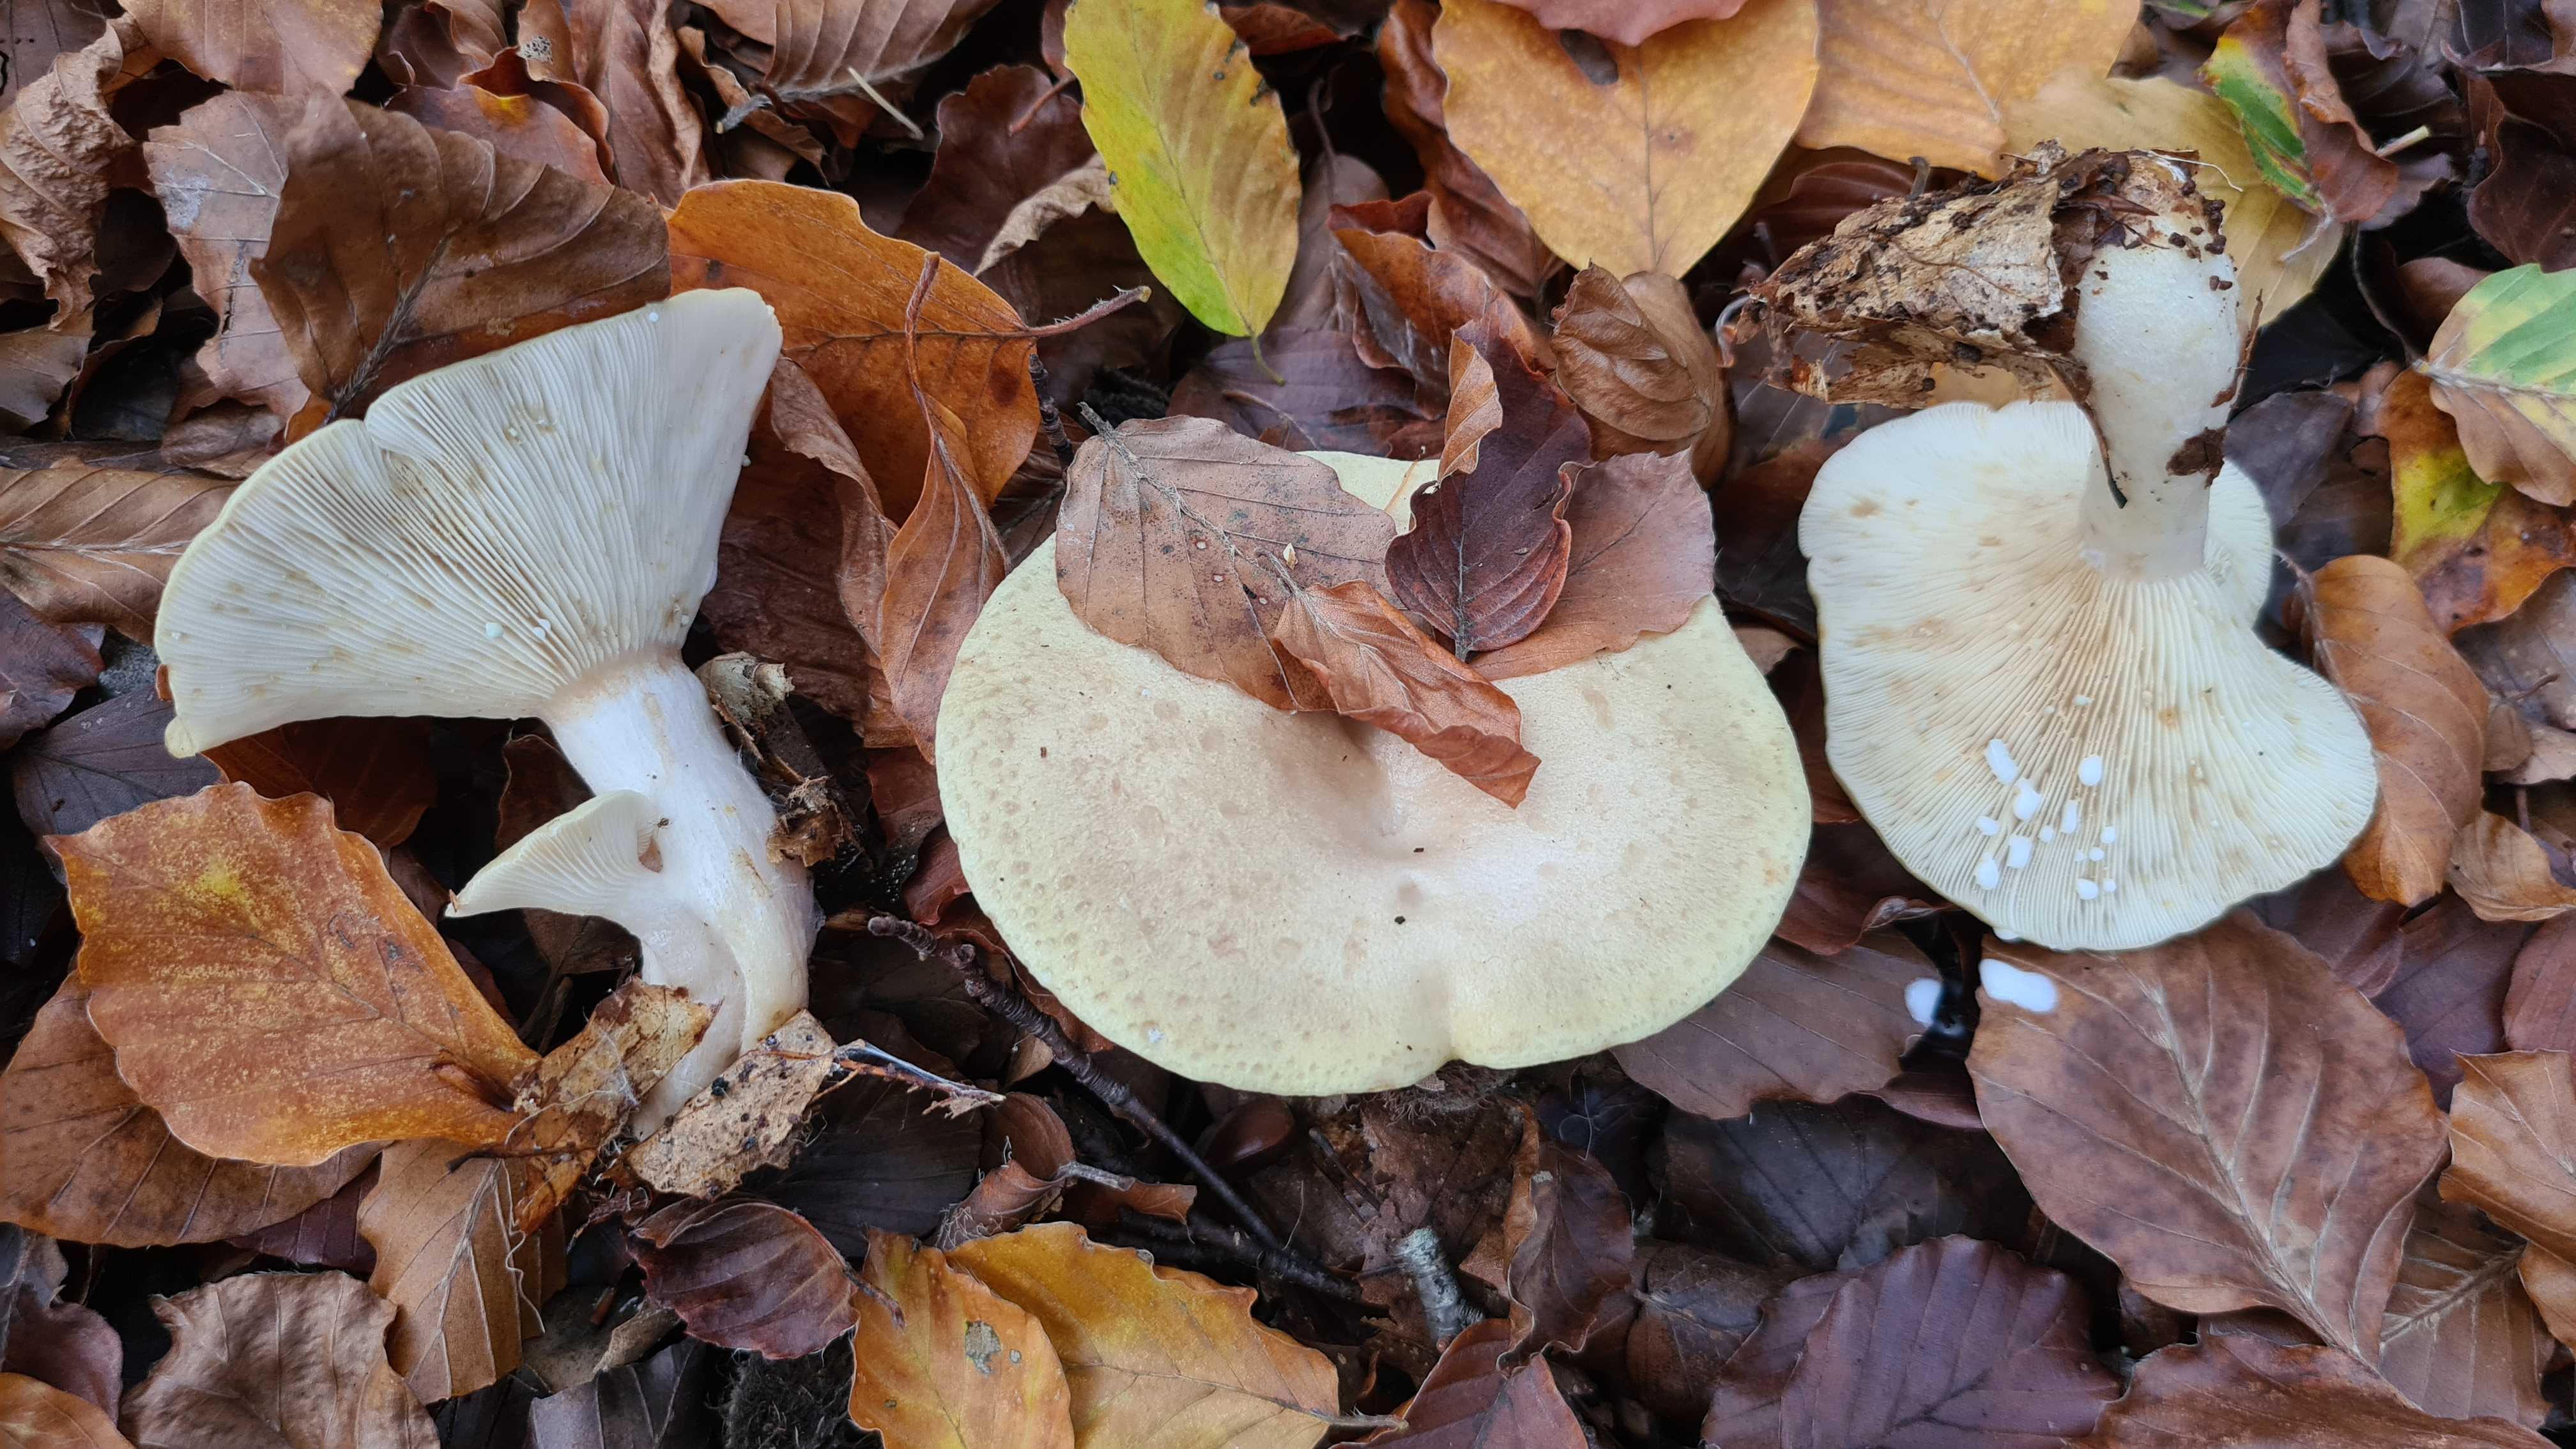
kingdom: Fungi
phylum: Basidiomycota
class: Agaricomycetes
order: Russulales
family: Russulaceae
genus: Lactarius
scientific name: Lactarius blennius
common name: dråbeplettet mælkehat
